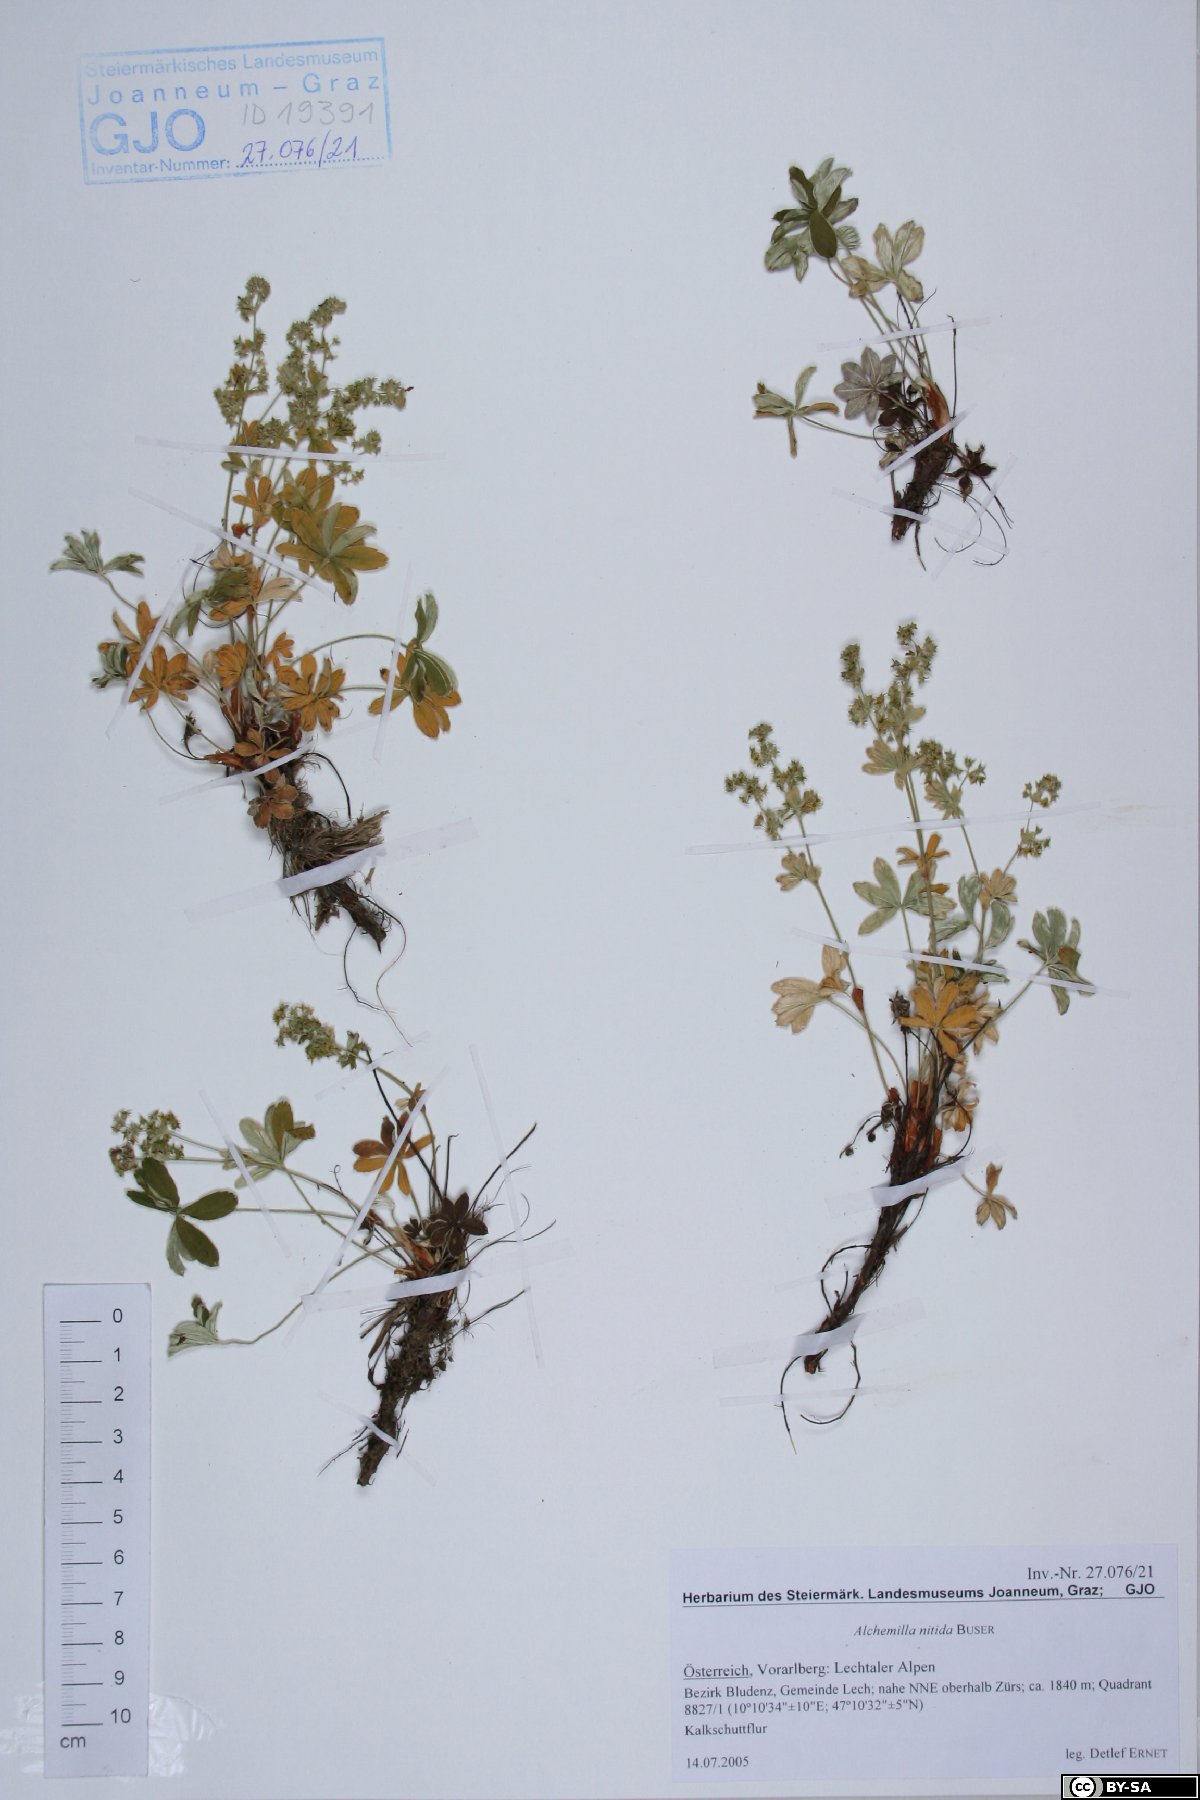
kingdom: Plantae
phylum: Tracheophyta
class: Magnoliopsida
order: Rosales
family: Rosaceae
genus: Alchemilla
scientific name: Alchemilla nitida
